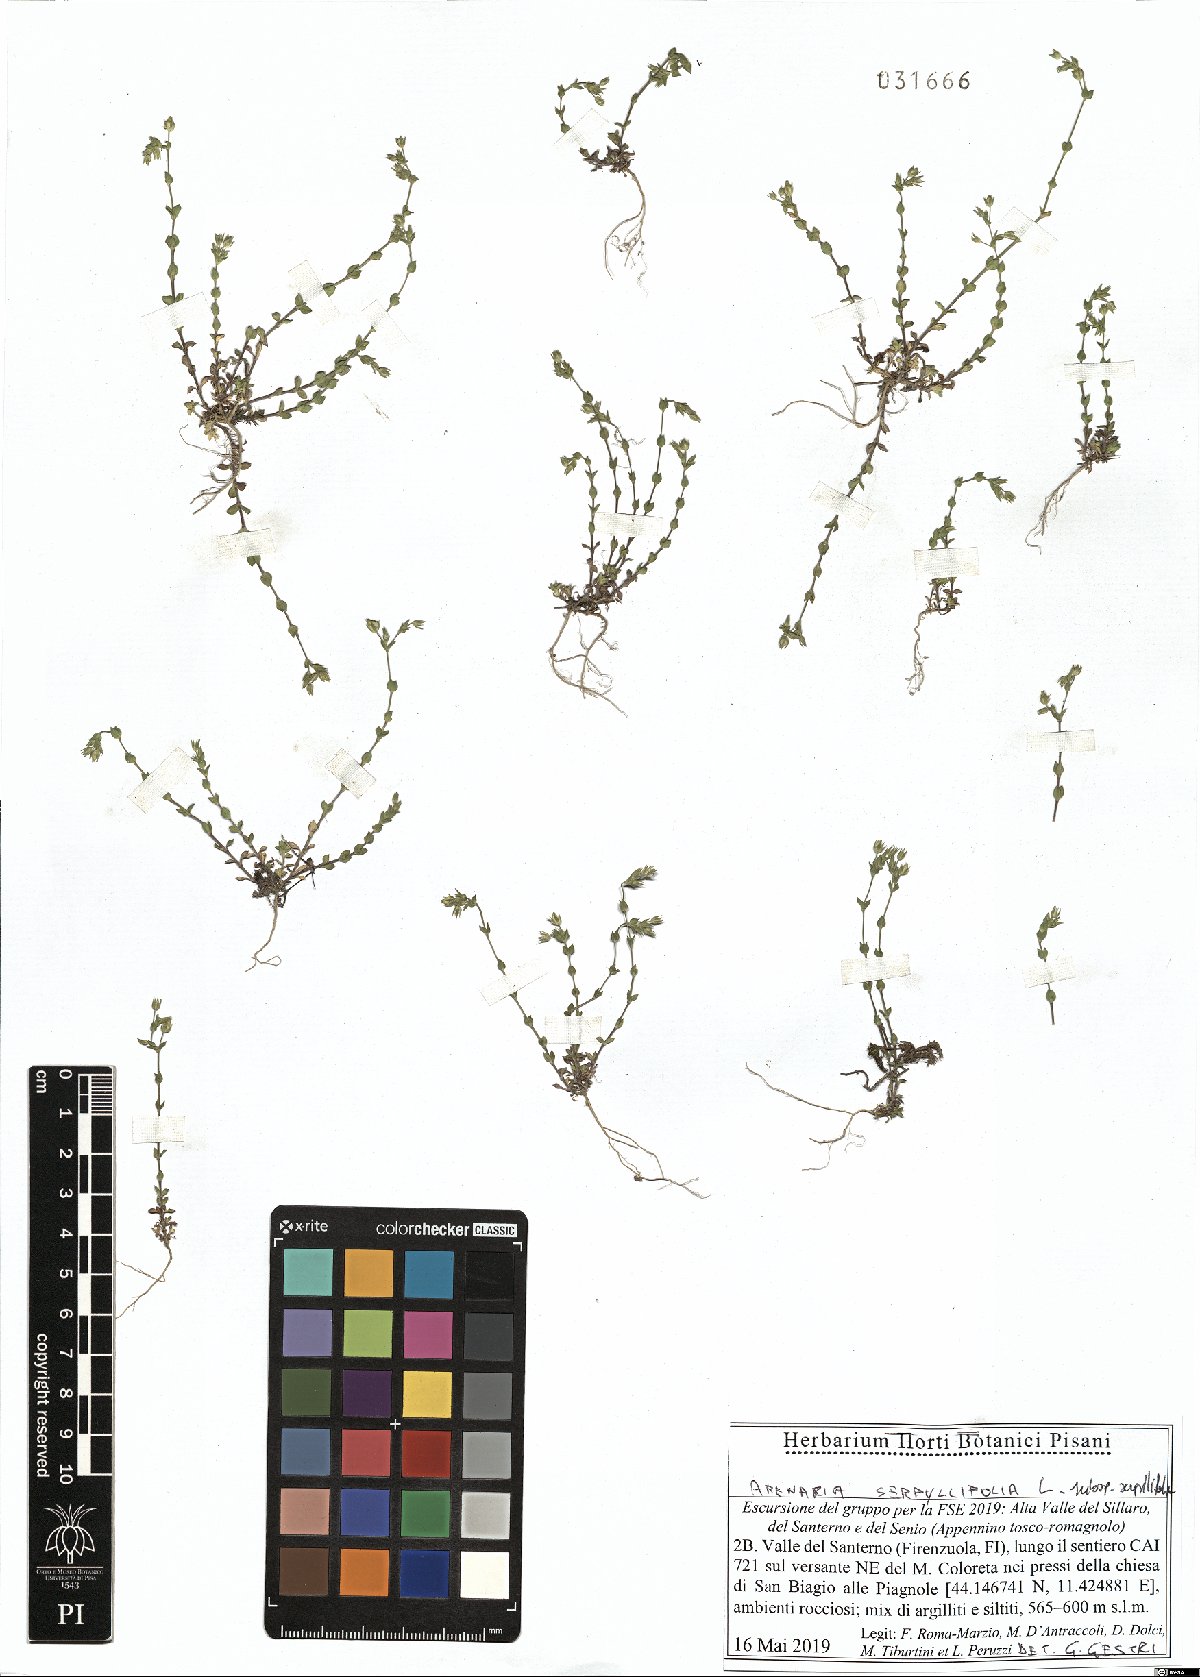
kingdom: Plantae
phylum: Tracheophyta
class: Magnoliopsida
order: Caryophyllales
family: Caryophyllaceae
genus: Arenaria
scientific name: Arenaria serpyllifolia
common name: Thyme-leaved sandwort
